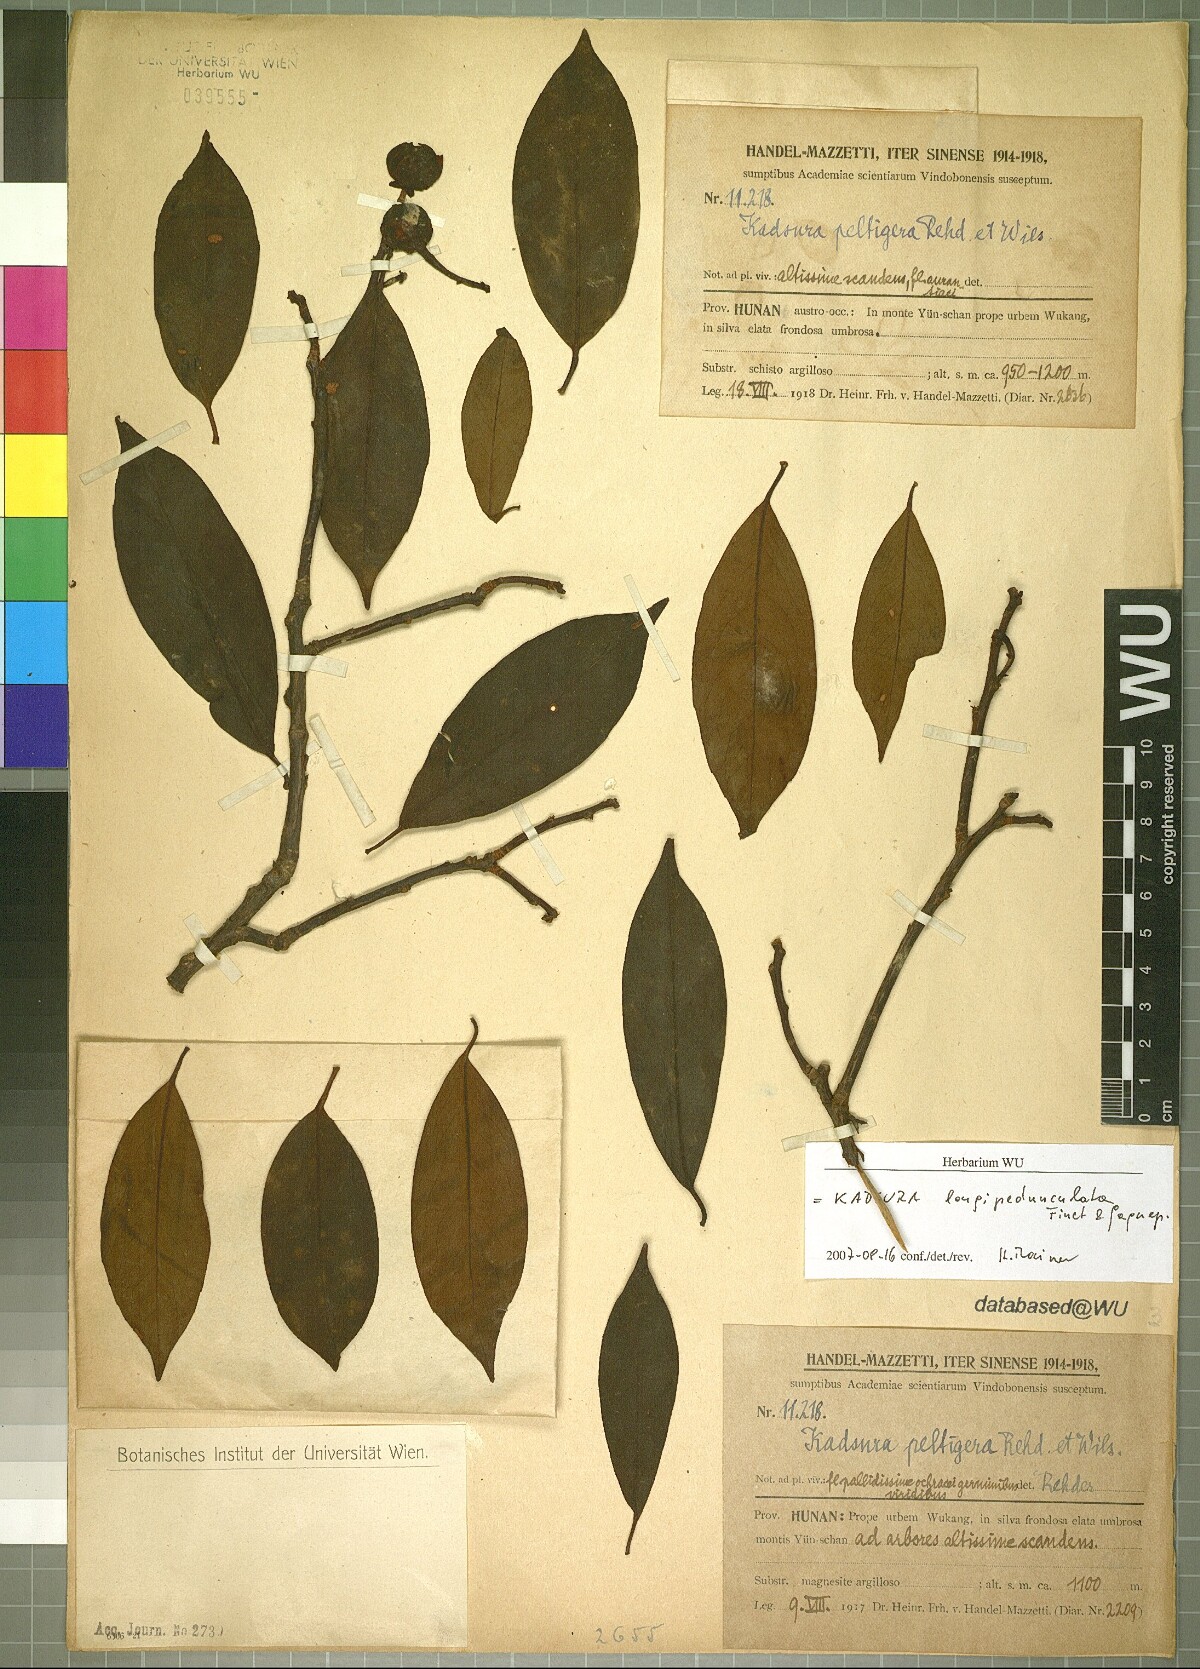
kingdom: Plantae
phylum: Tracheophyta
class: Magnoliopsida
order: Austrobaileyales
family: Schisandraceae
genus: Kadsura
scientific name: Kadsura longipedunculata
